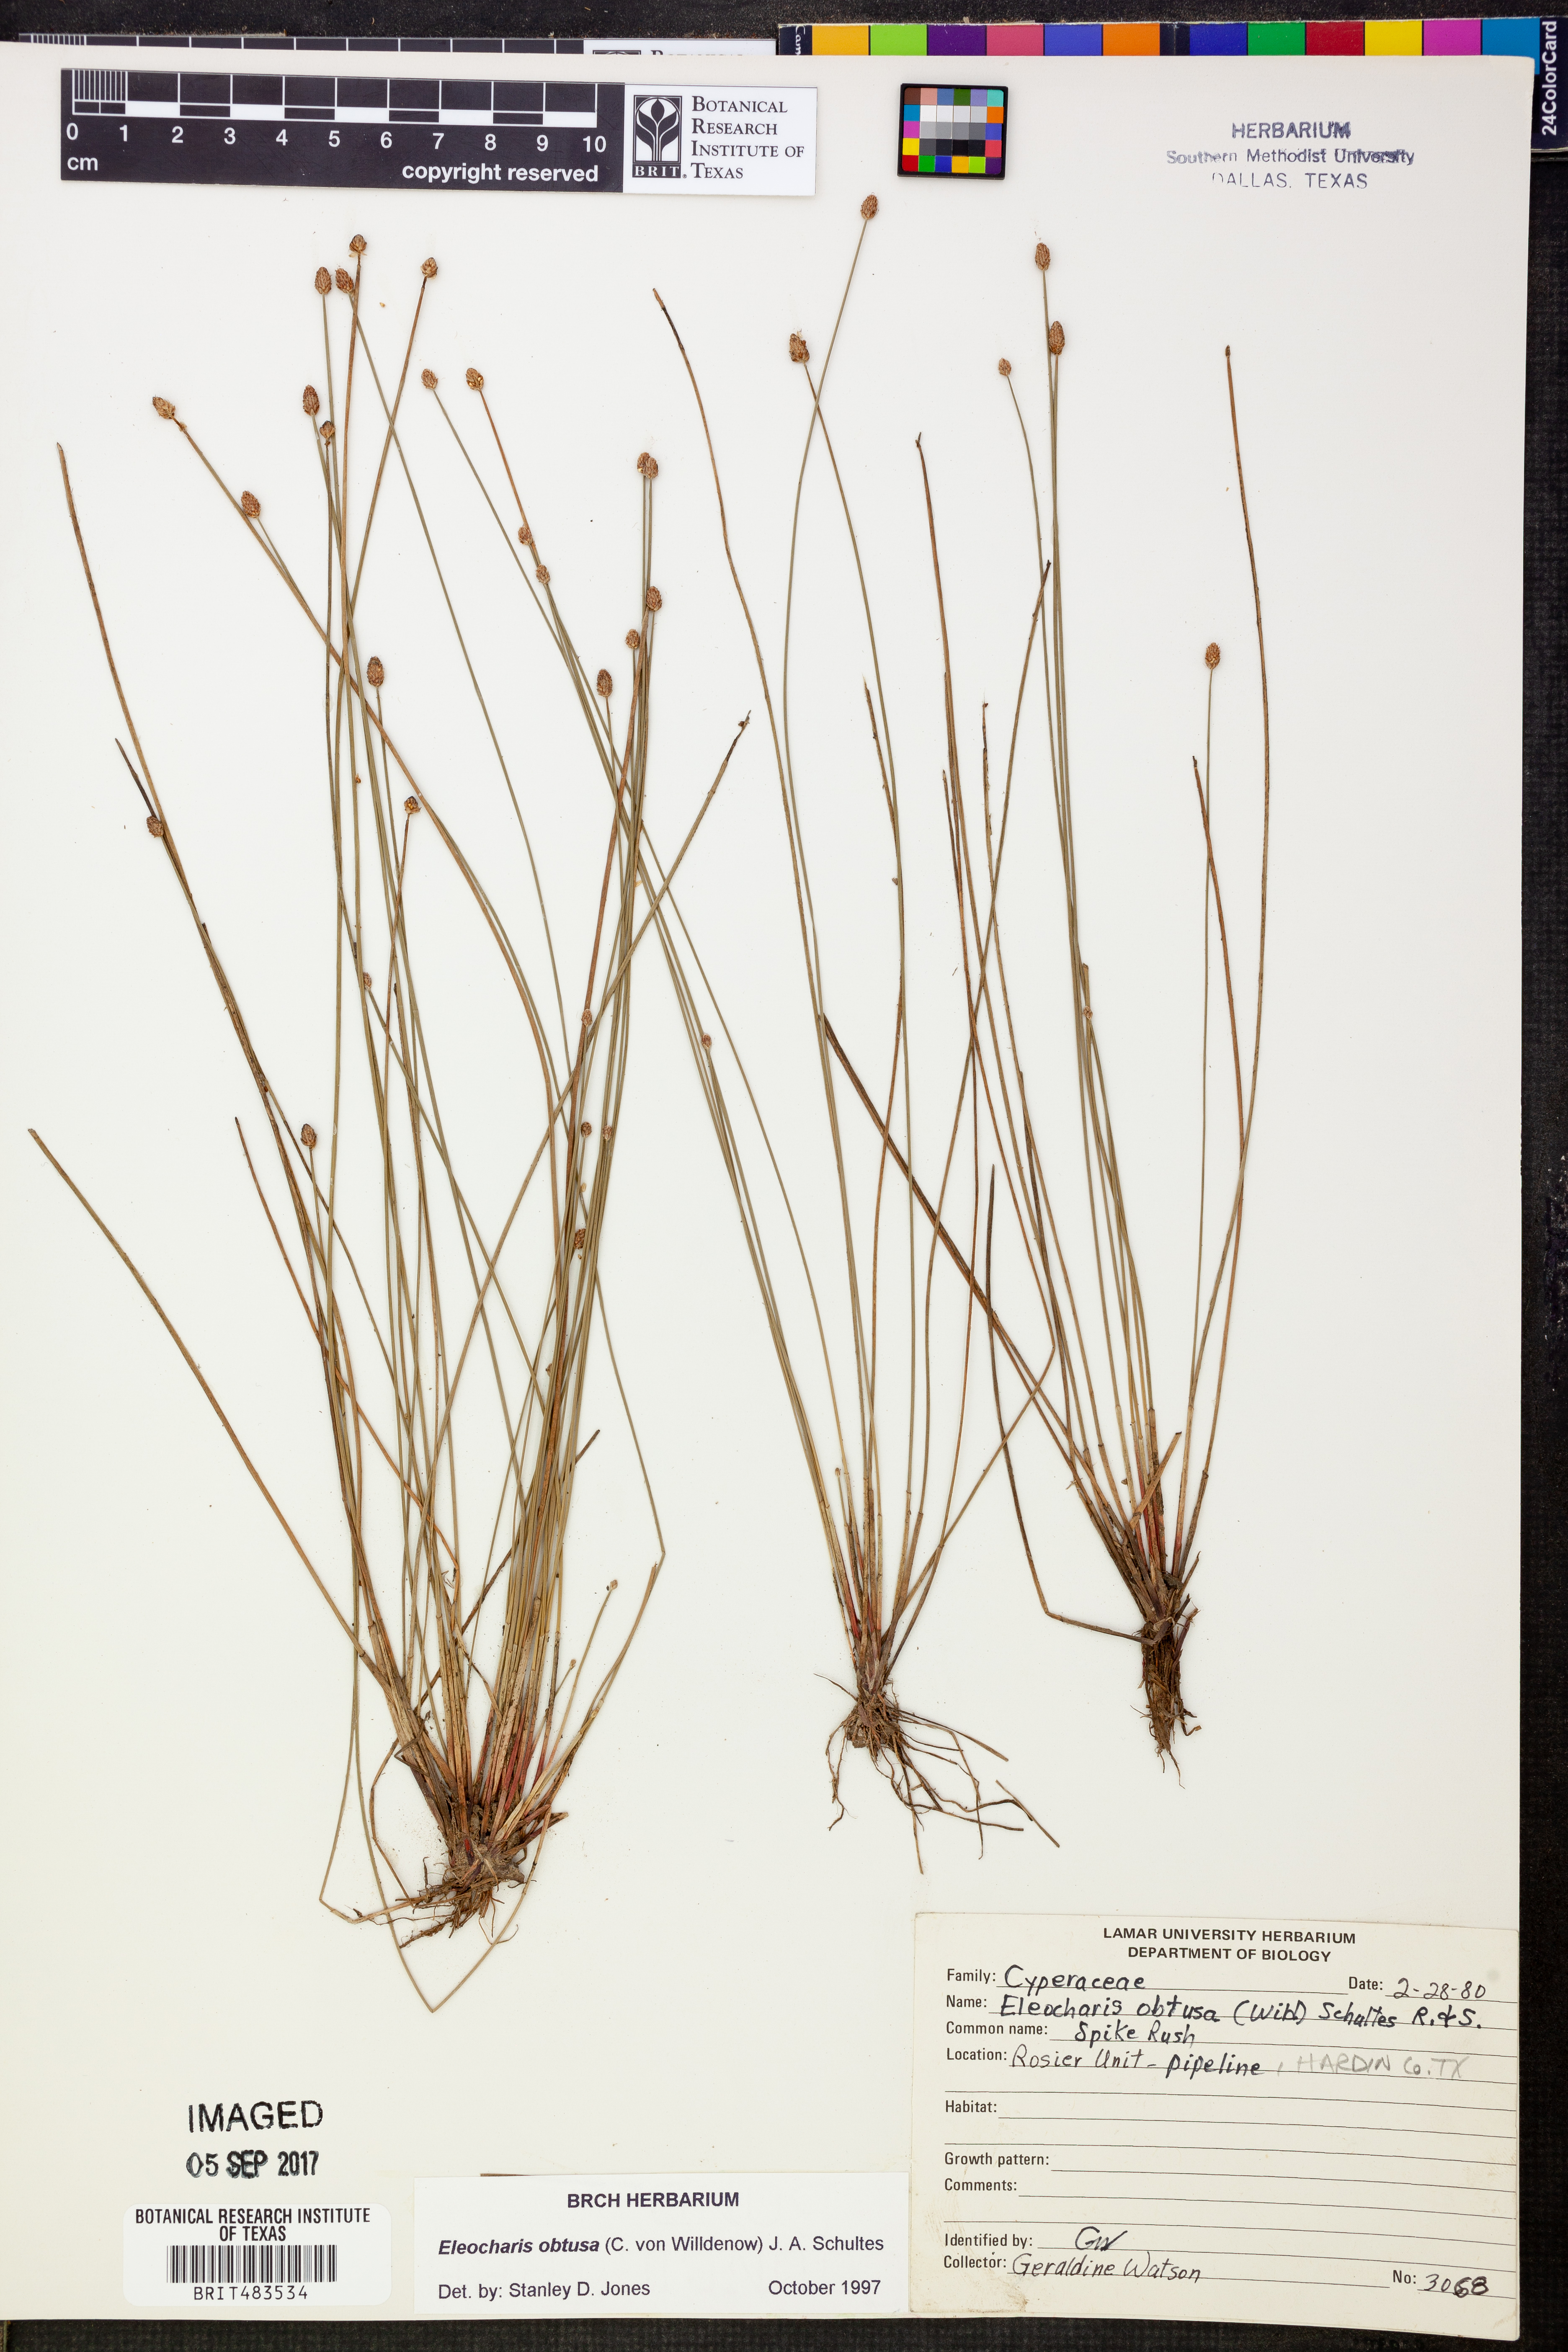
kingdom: Plantae
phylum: Tracheophyta
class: Liliopsida
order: Poales
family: Cyperaceae
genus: Eleocharis
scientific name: Eleocharis obtusa
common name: Blunt spikerush
